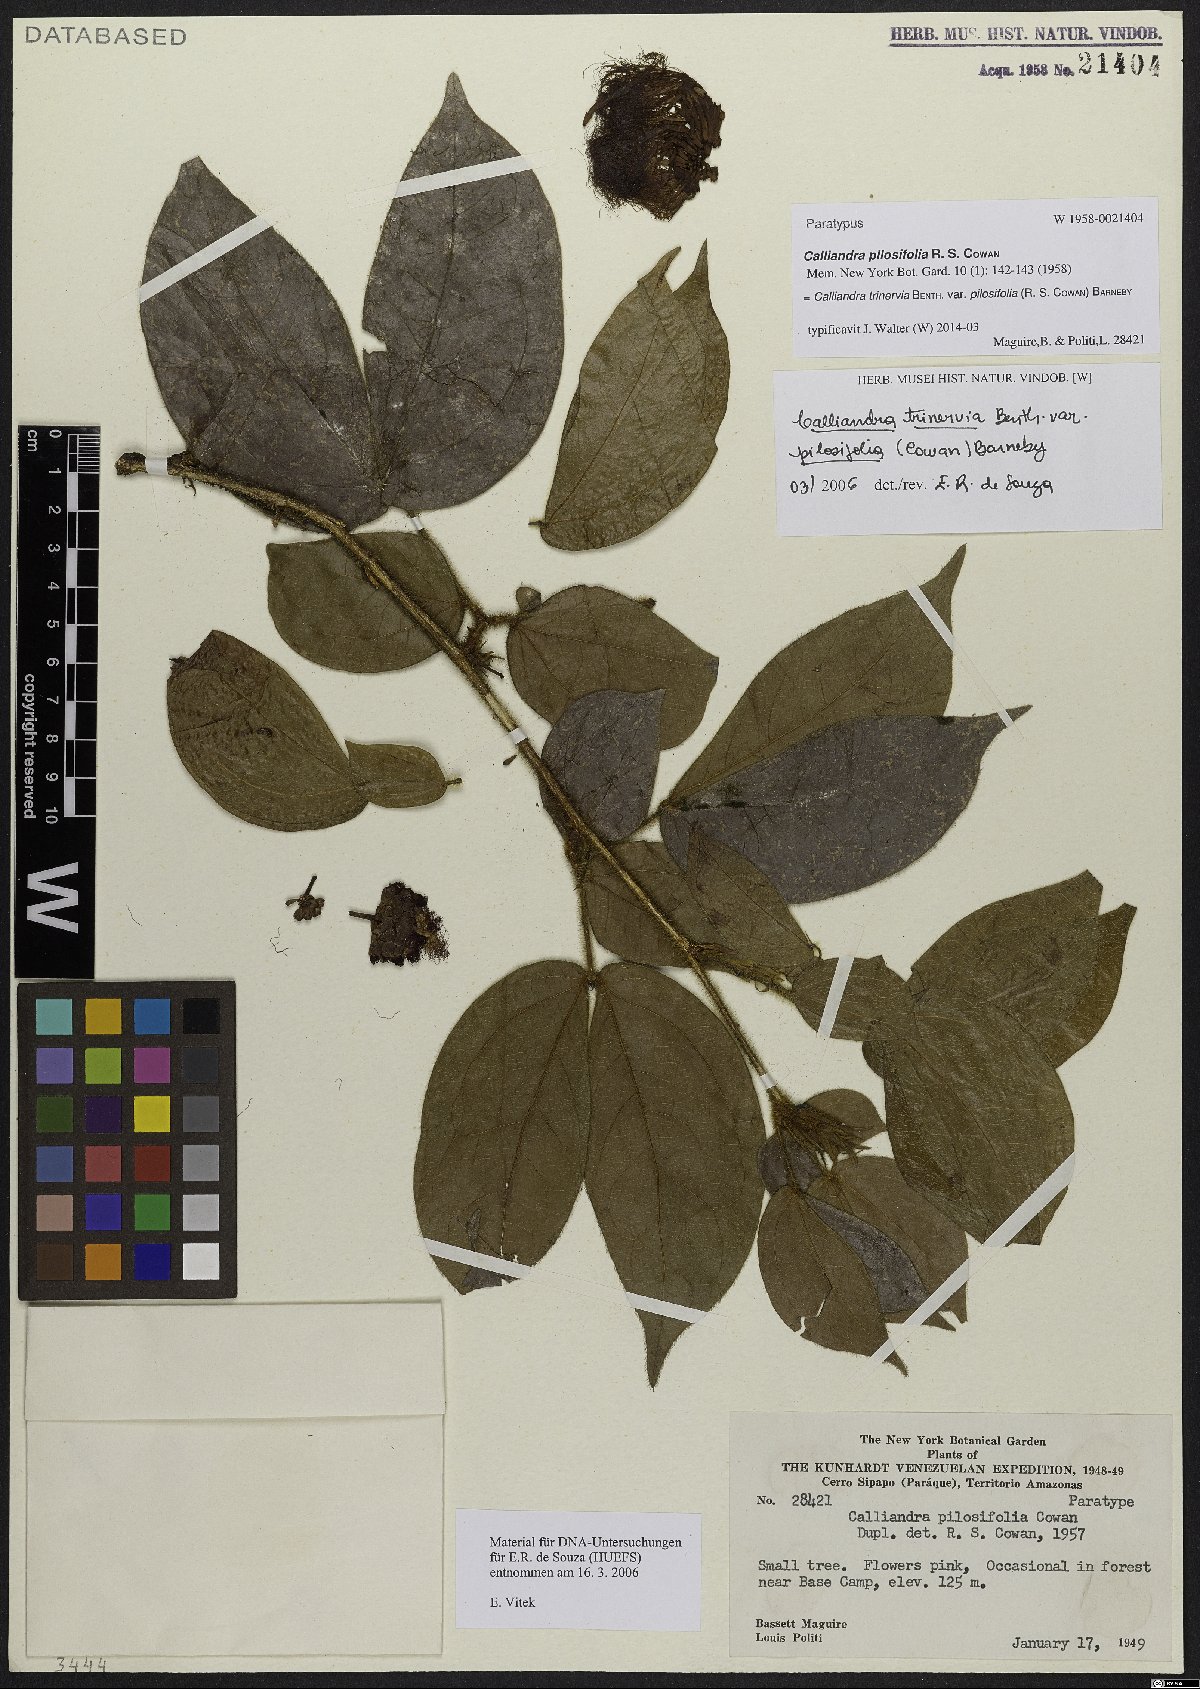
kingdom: Plantae
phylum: Tracheophyta
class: Magnoliopsida
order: Fabales
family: Fabaceae
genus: Calliandra
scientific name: Calliandra trinervia
